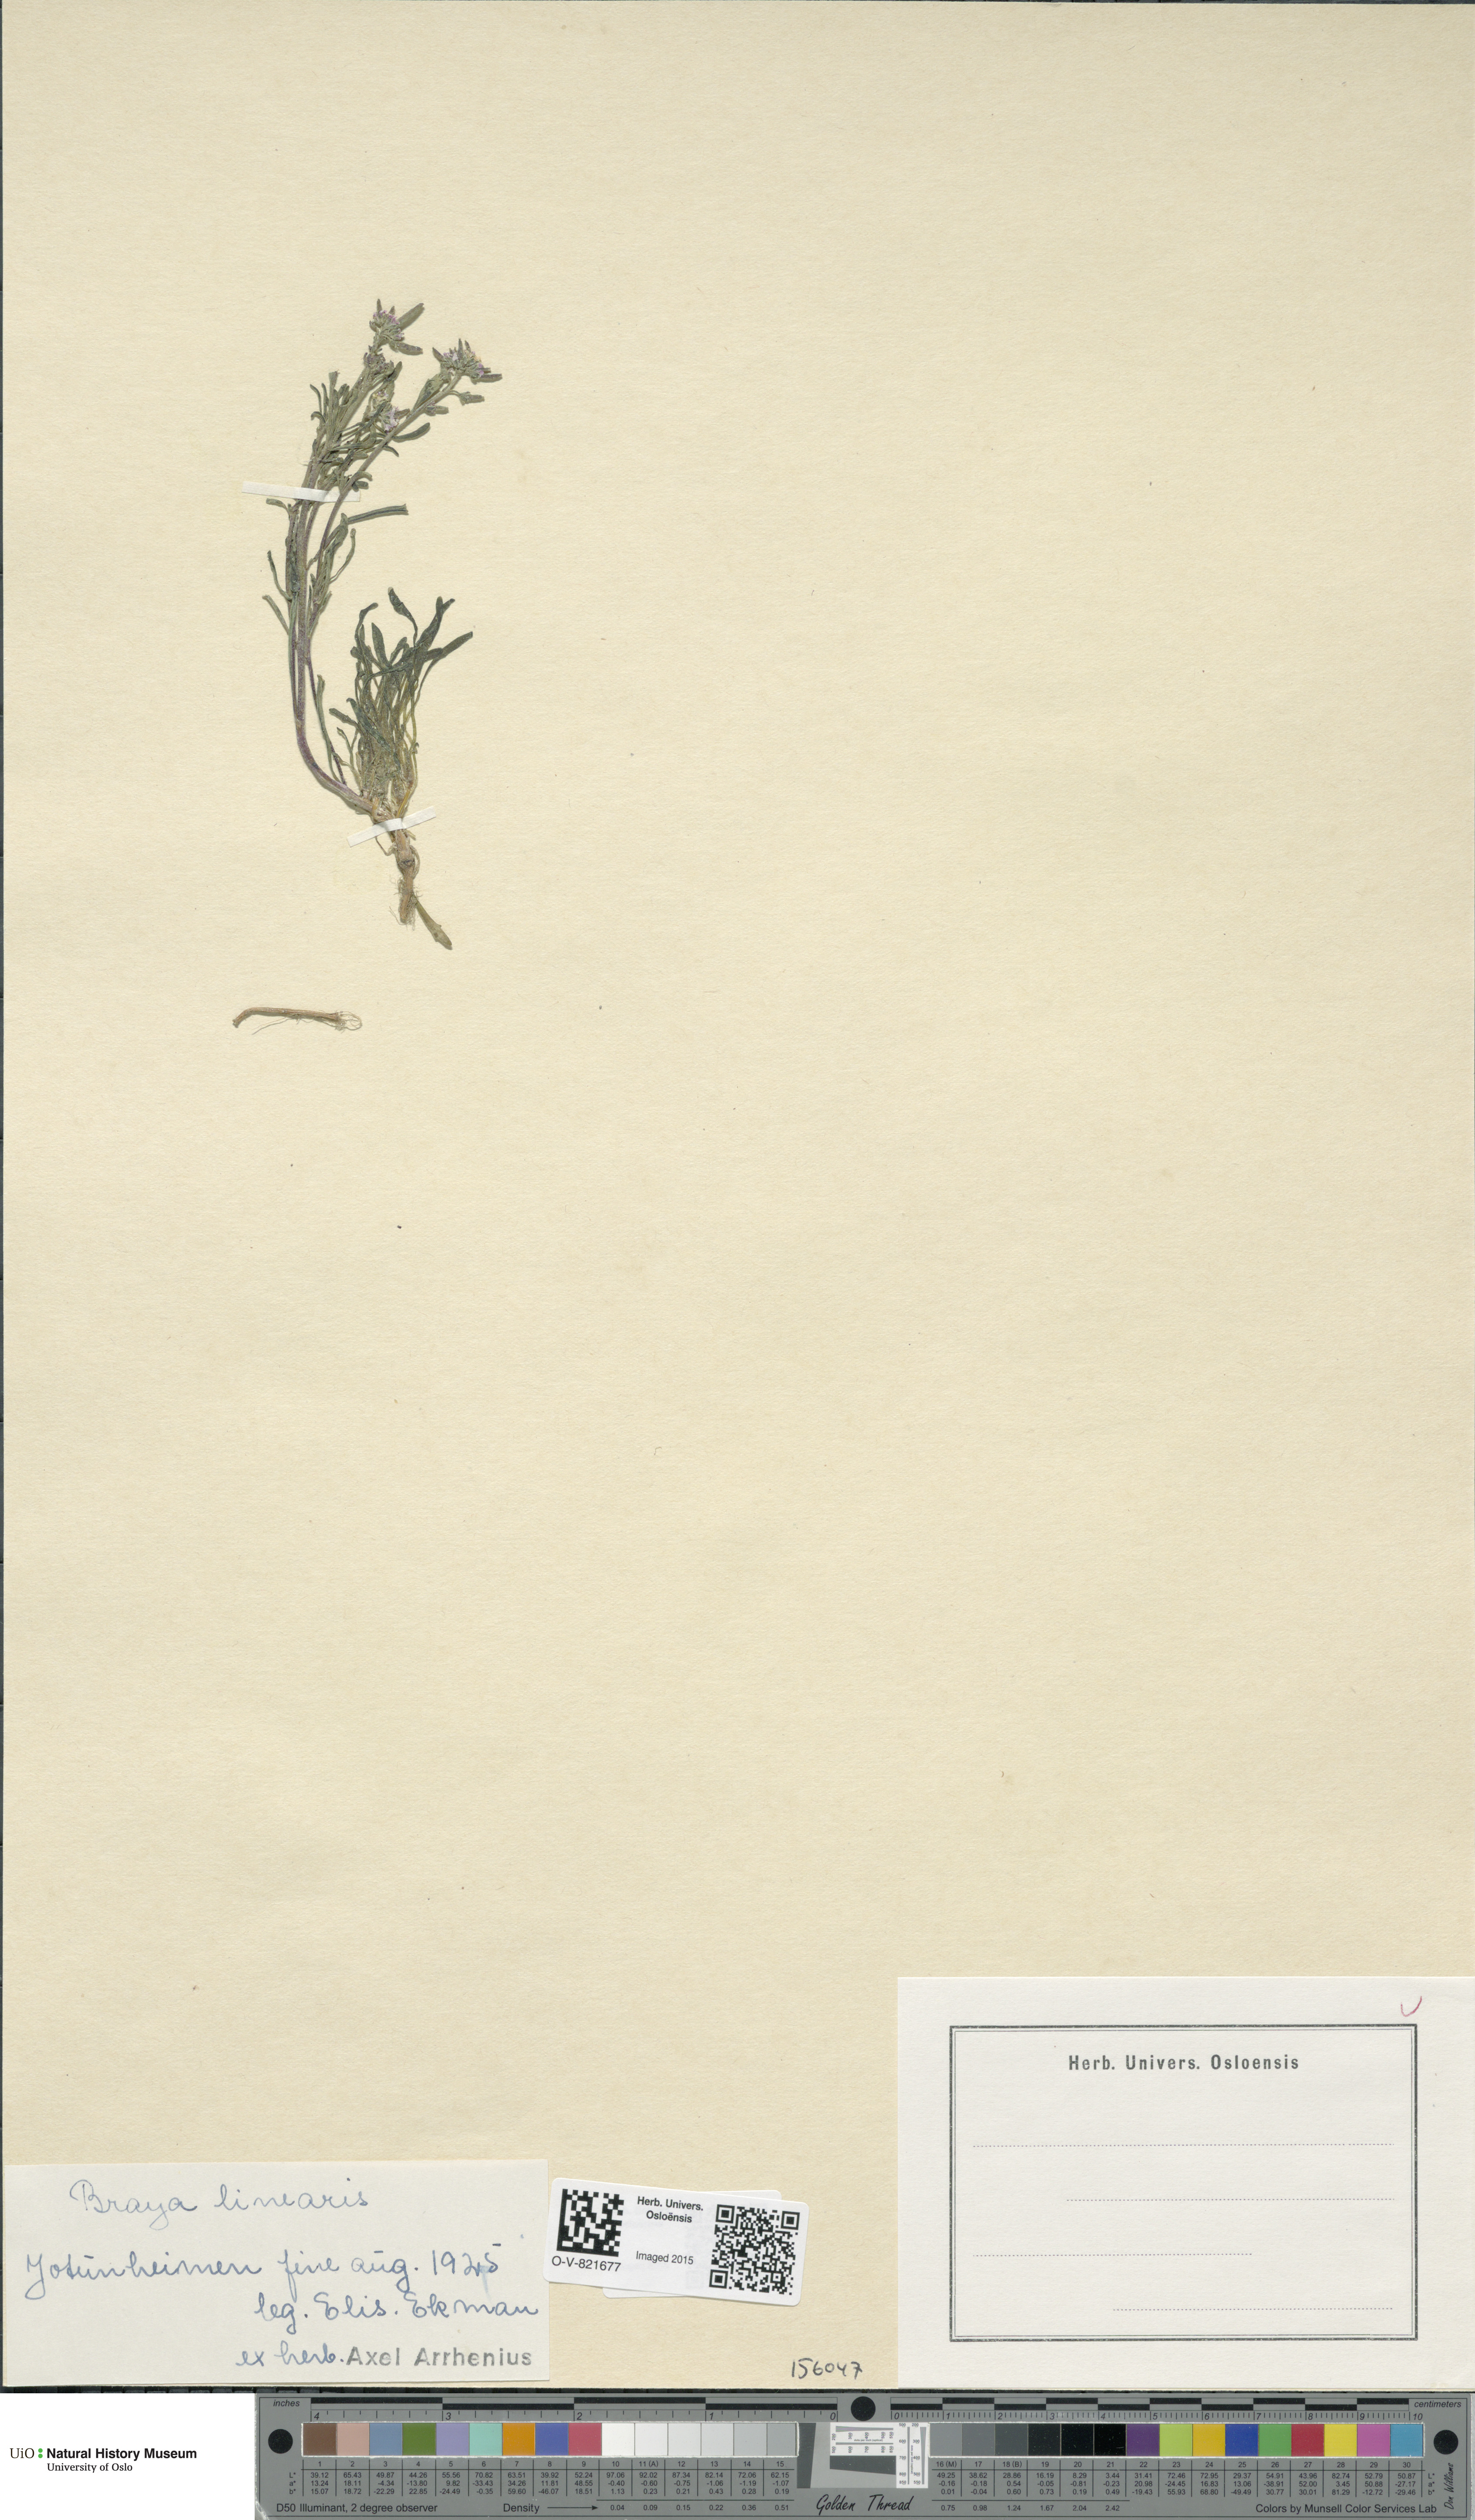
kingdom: Plantae
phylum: Tracheophyta
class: Magnoliopsida
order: Brassicales
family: Brassicaceae
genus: Braya
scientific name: Braya linearis
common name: Narrow-fruit braya
